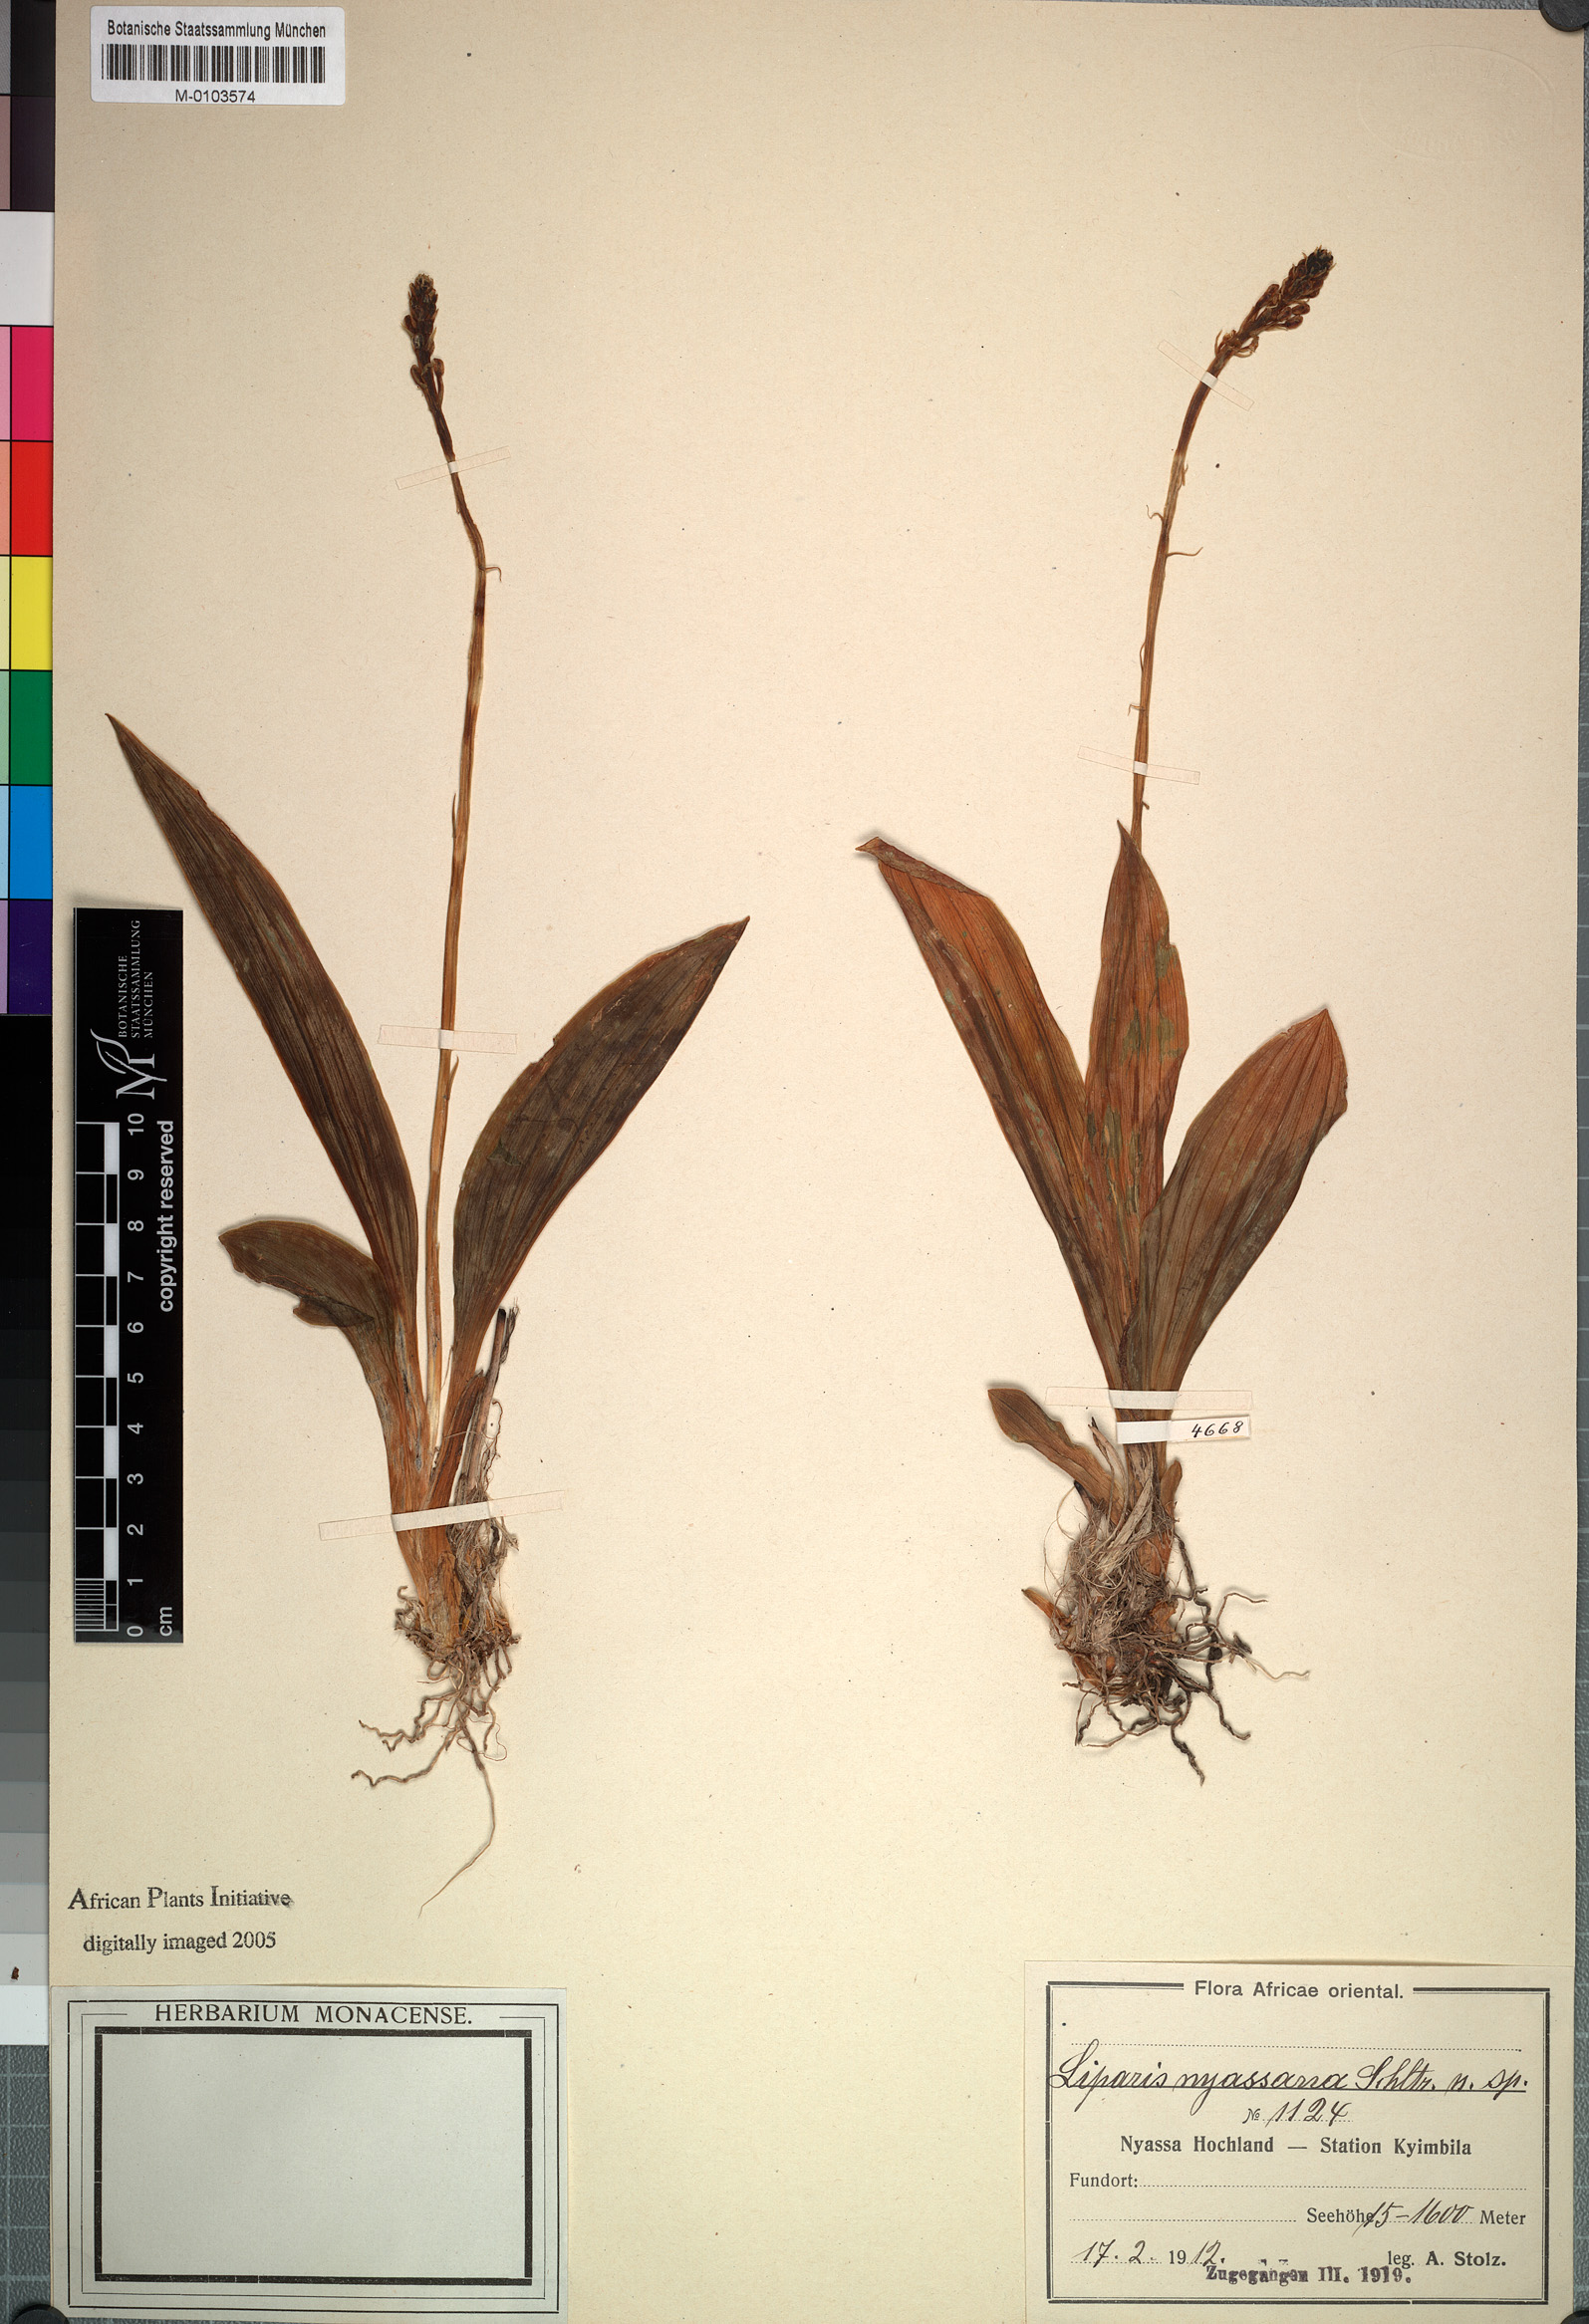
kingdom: Plantae
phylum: Tracheophyta
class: Liliopsida
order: Asparagales
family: Orchidaceae
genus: Liparis
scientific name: Liparis nervosa
